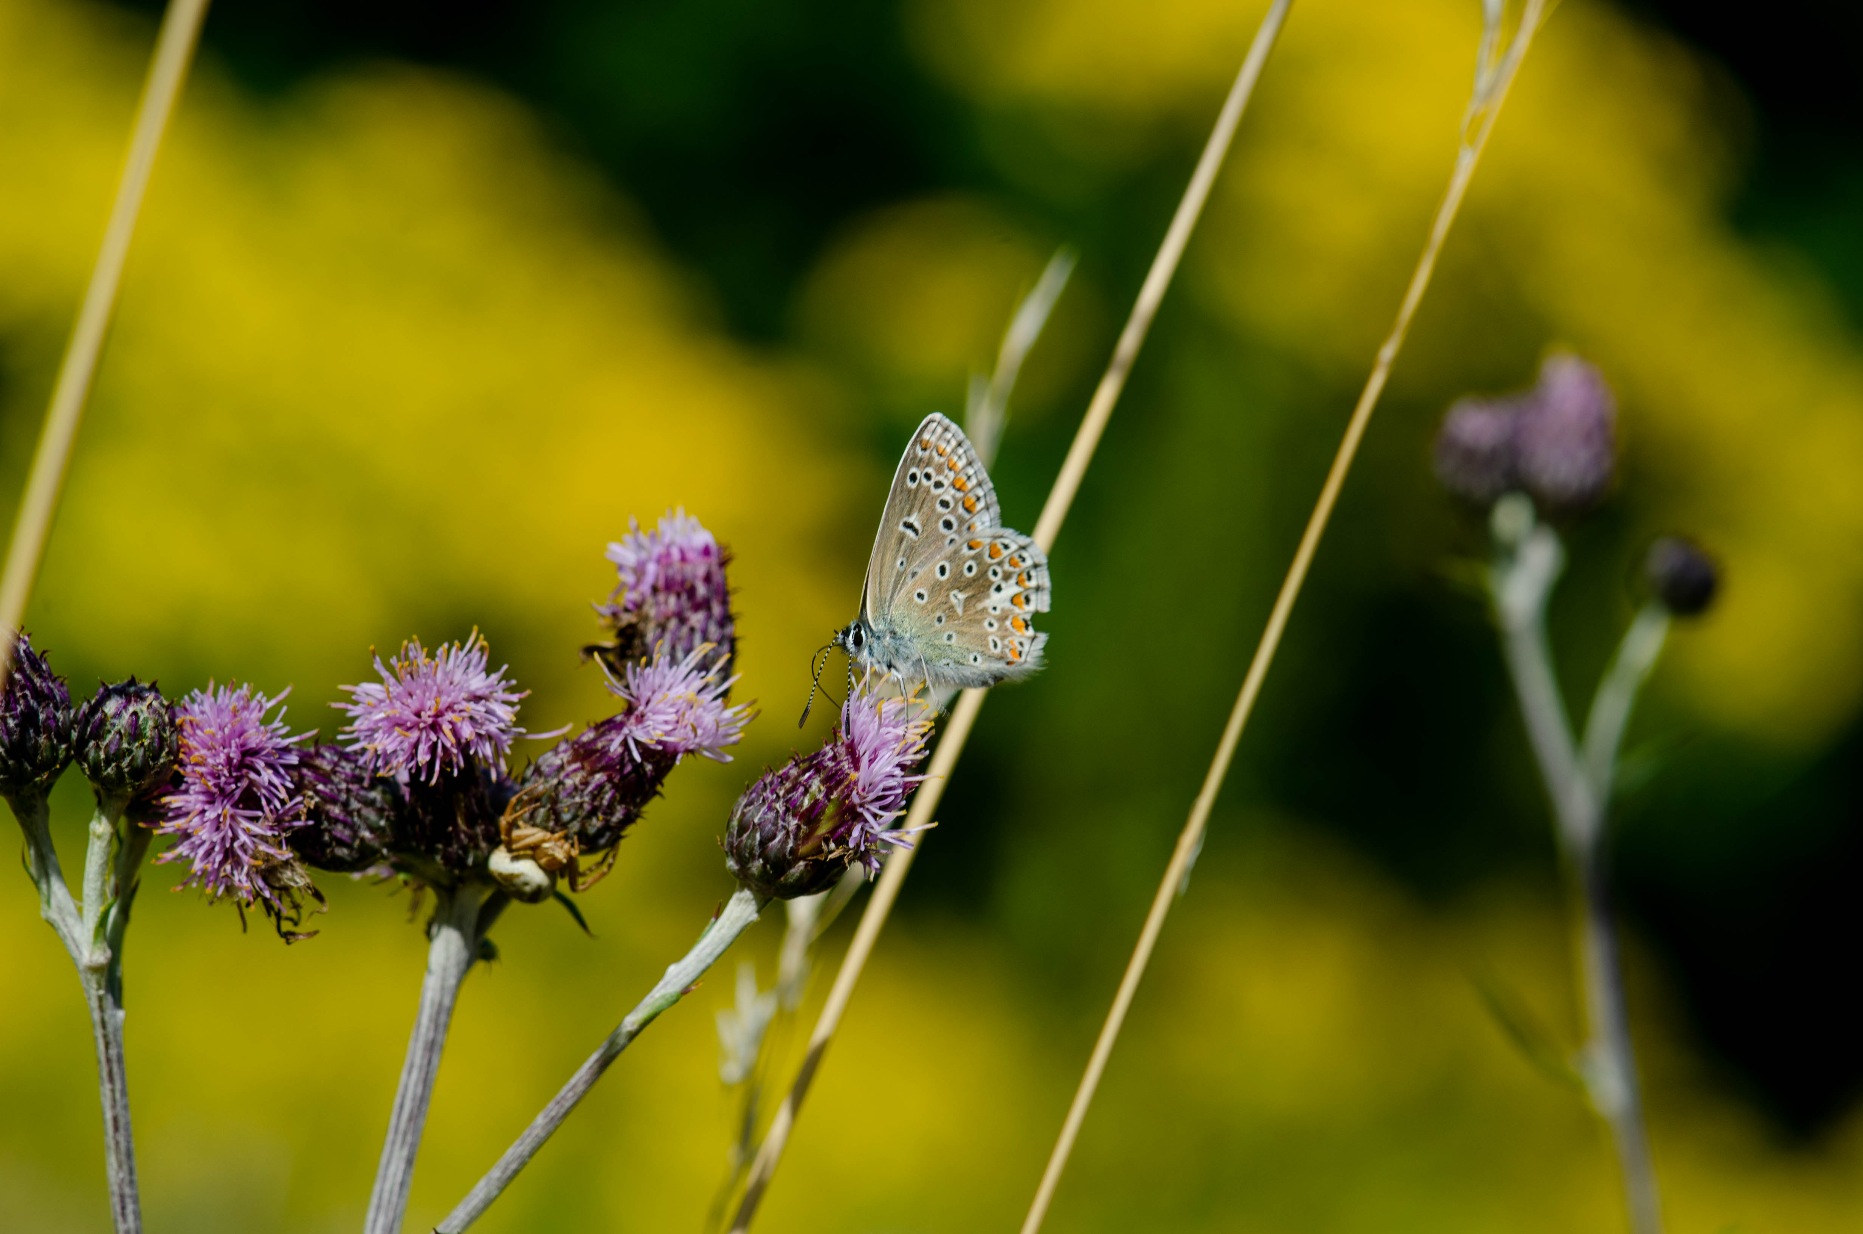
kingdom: Animalia
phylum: Arthropoda
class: Insecta
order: Lepidoptera
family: Lycaenidae
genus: Polyommatus
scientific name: Polyommatus icarus
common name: Almindelig blåfugl
